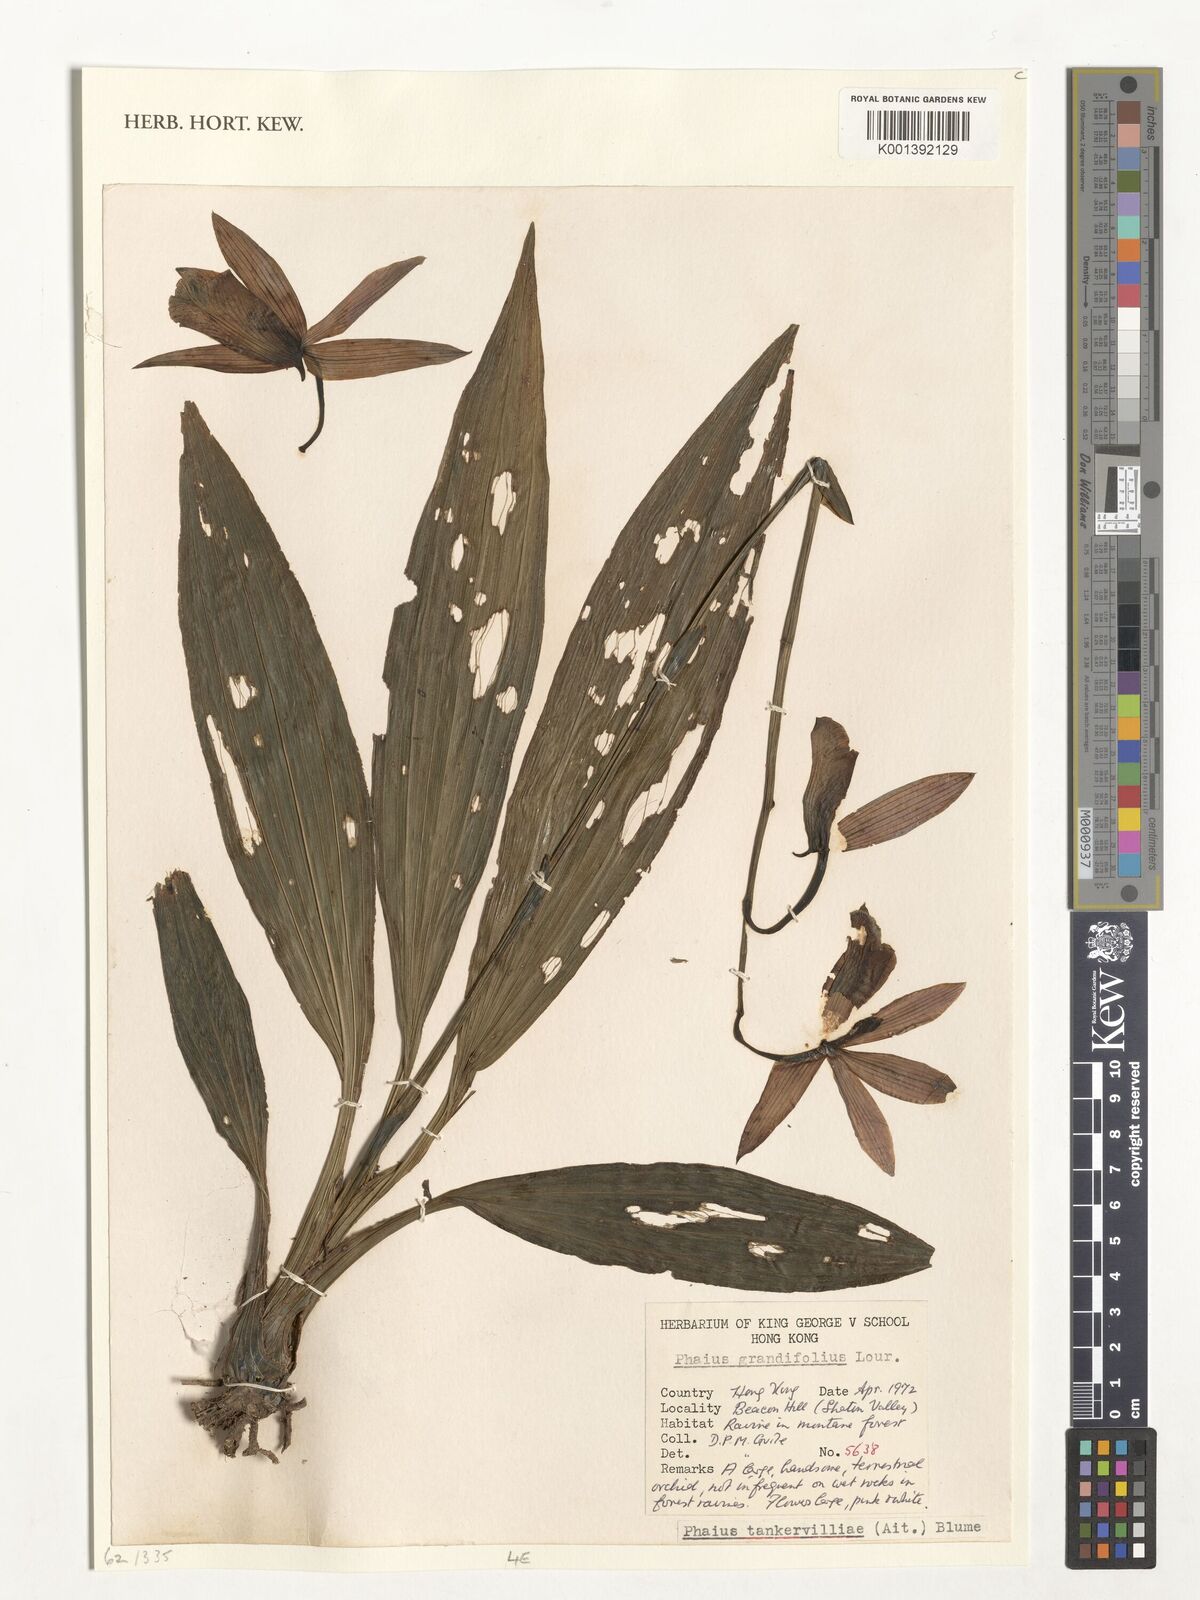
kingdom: Plantae
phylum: Tracheophyta
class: Liliopsida
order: Asparagales
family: Orchidaceae
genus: Calanthe
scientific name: Calanthe tankervilleae
